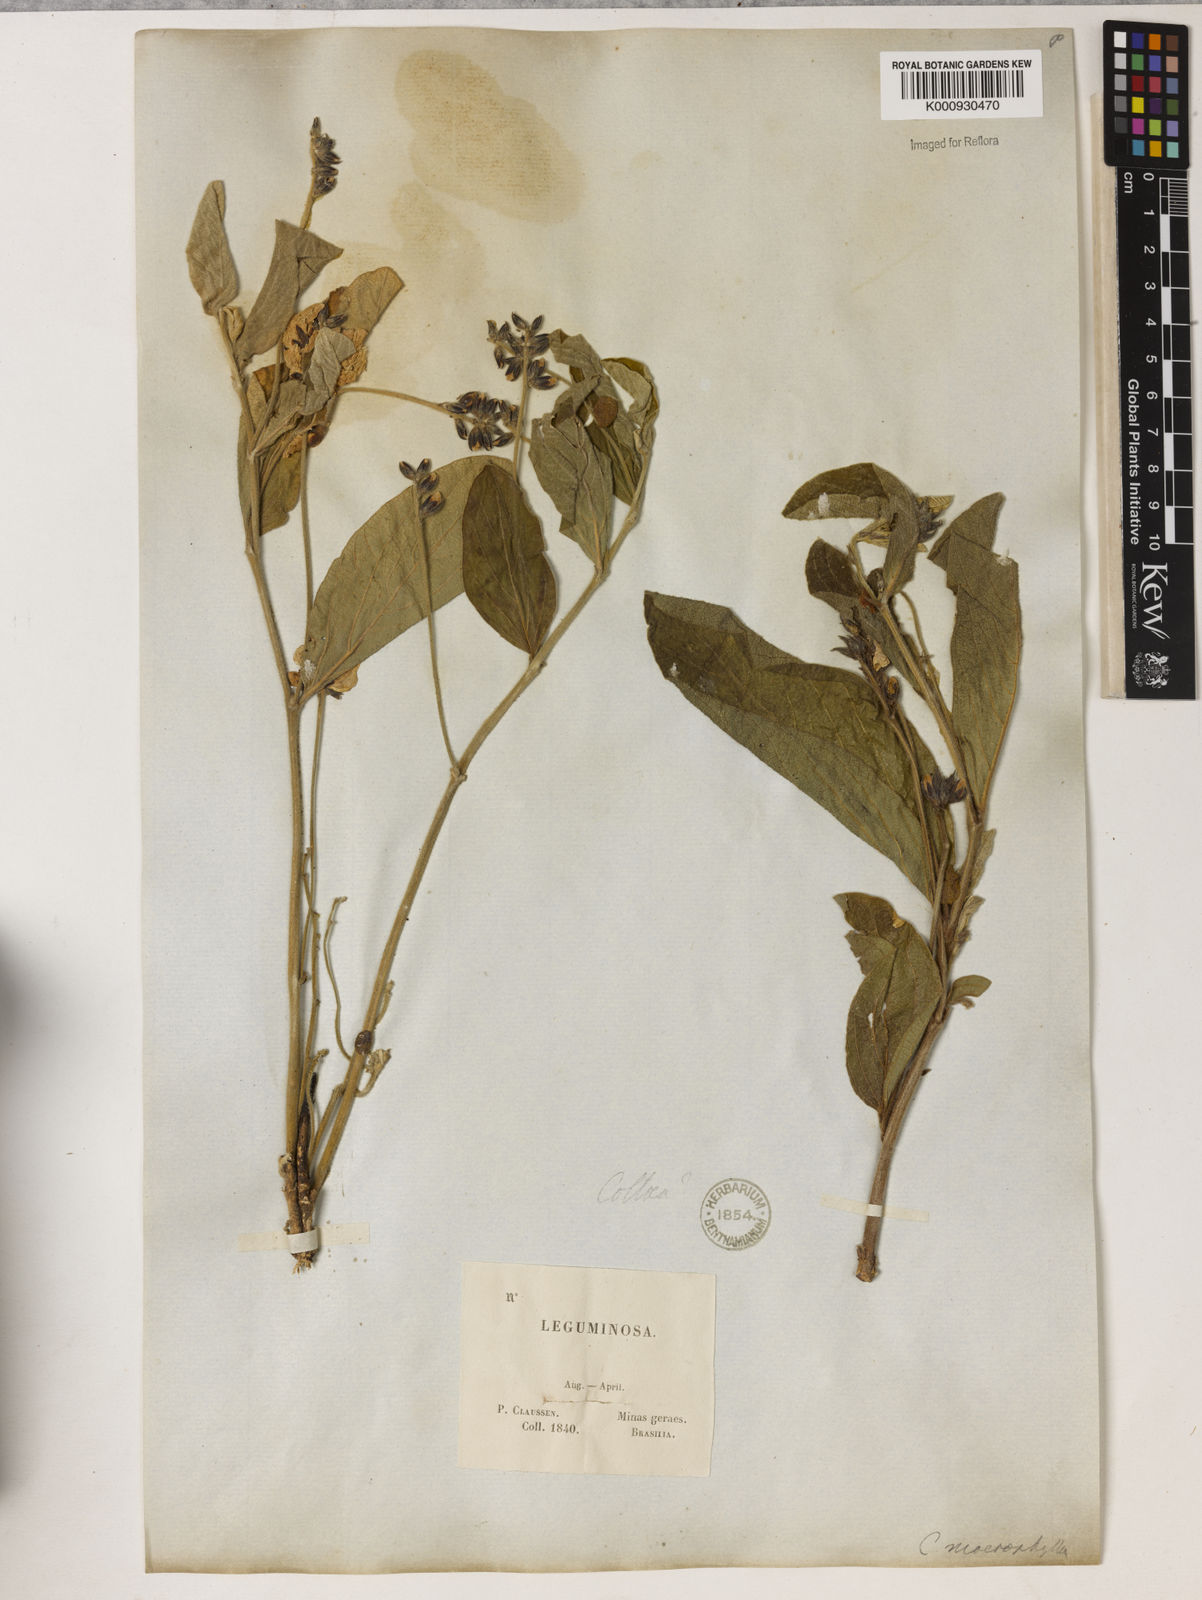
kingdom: Plantae
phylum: Tracheophyta
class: Magnoliopsida
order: Fabales
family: Fabaceae
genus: Cerradicola
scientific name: Cerradicola boavista
